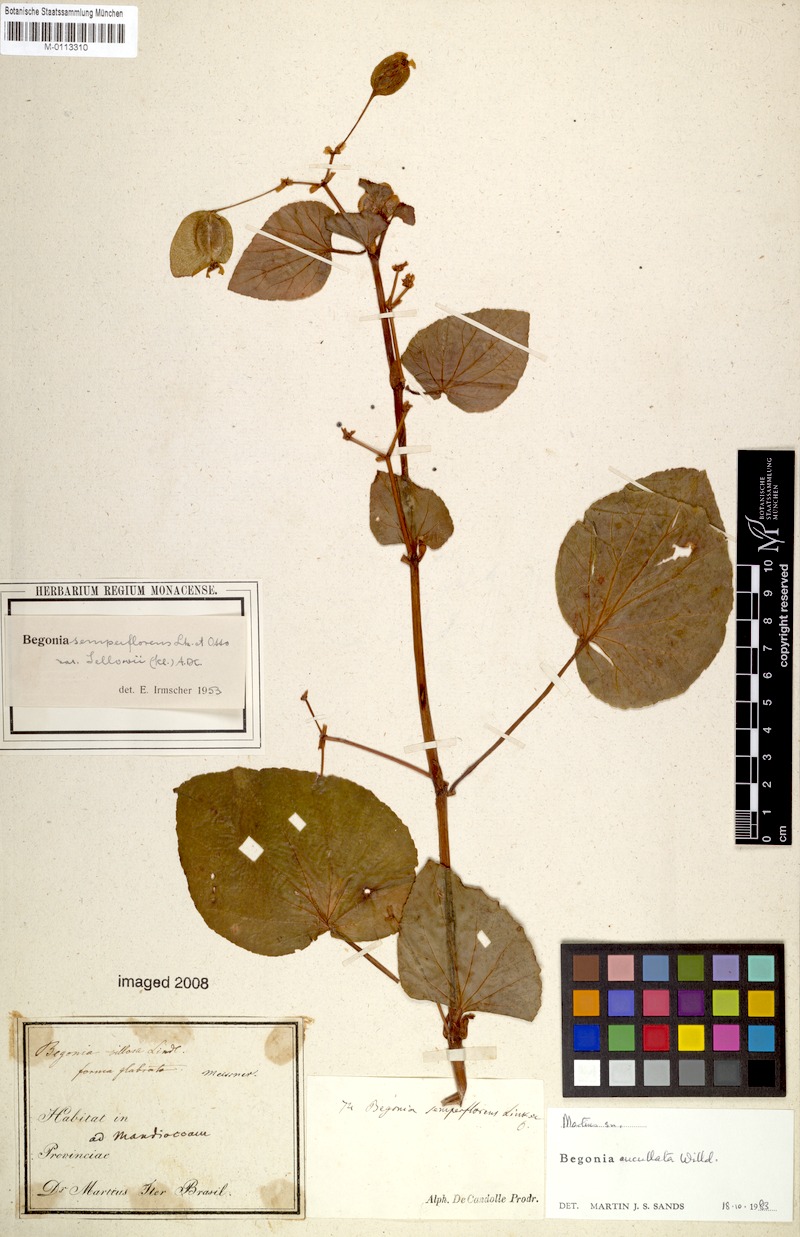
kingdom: Plantae
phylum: Tracheophyta
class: Magnoliopsida
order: Cucurbitales
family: Begoniaceae
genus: Begonia
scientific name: Begonia cucullata
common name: Clubbed begonia
